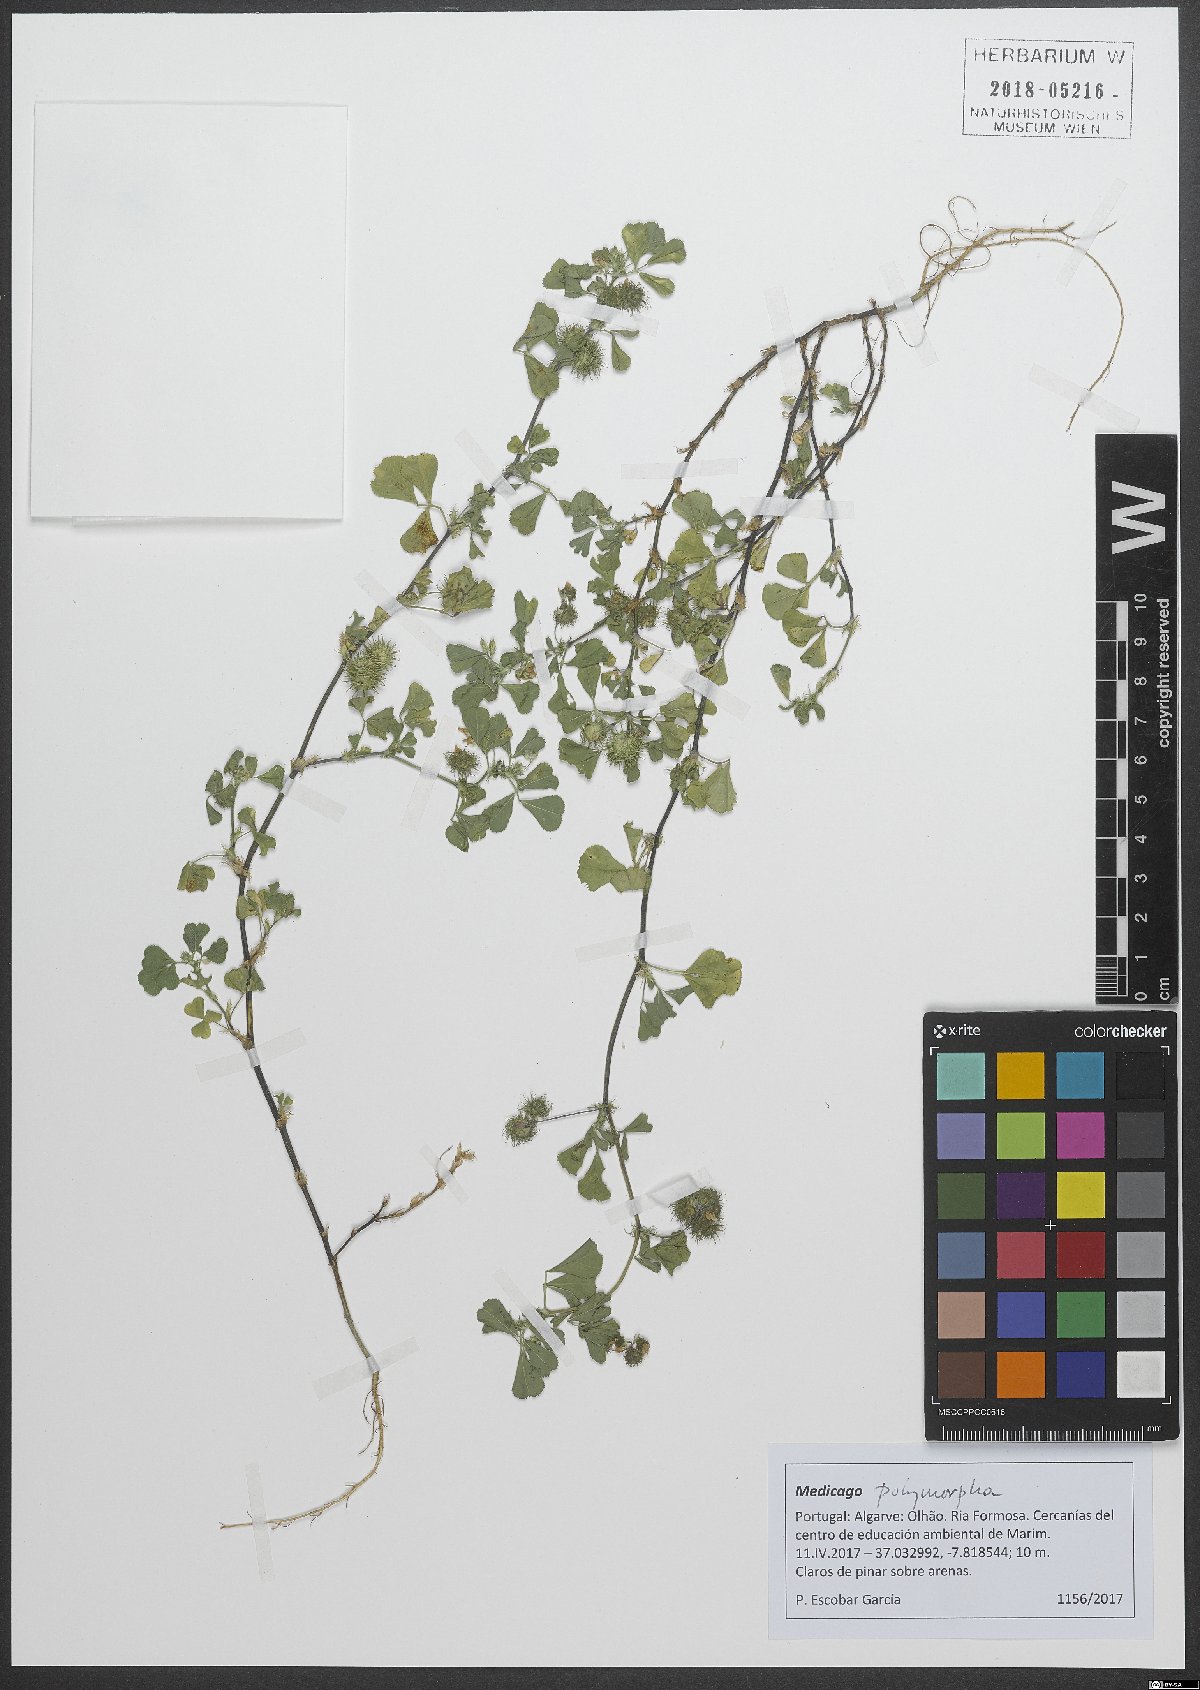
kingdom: Plantae
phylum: Tracheophyta
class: Magnoliopsida
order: Fabales
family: Fabaceae
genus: Medicago
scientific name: Medicago polymorpha
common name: Burclover
